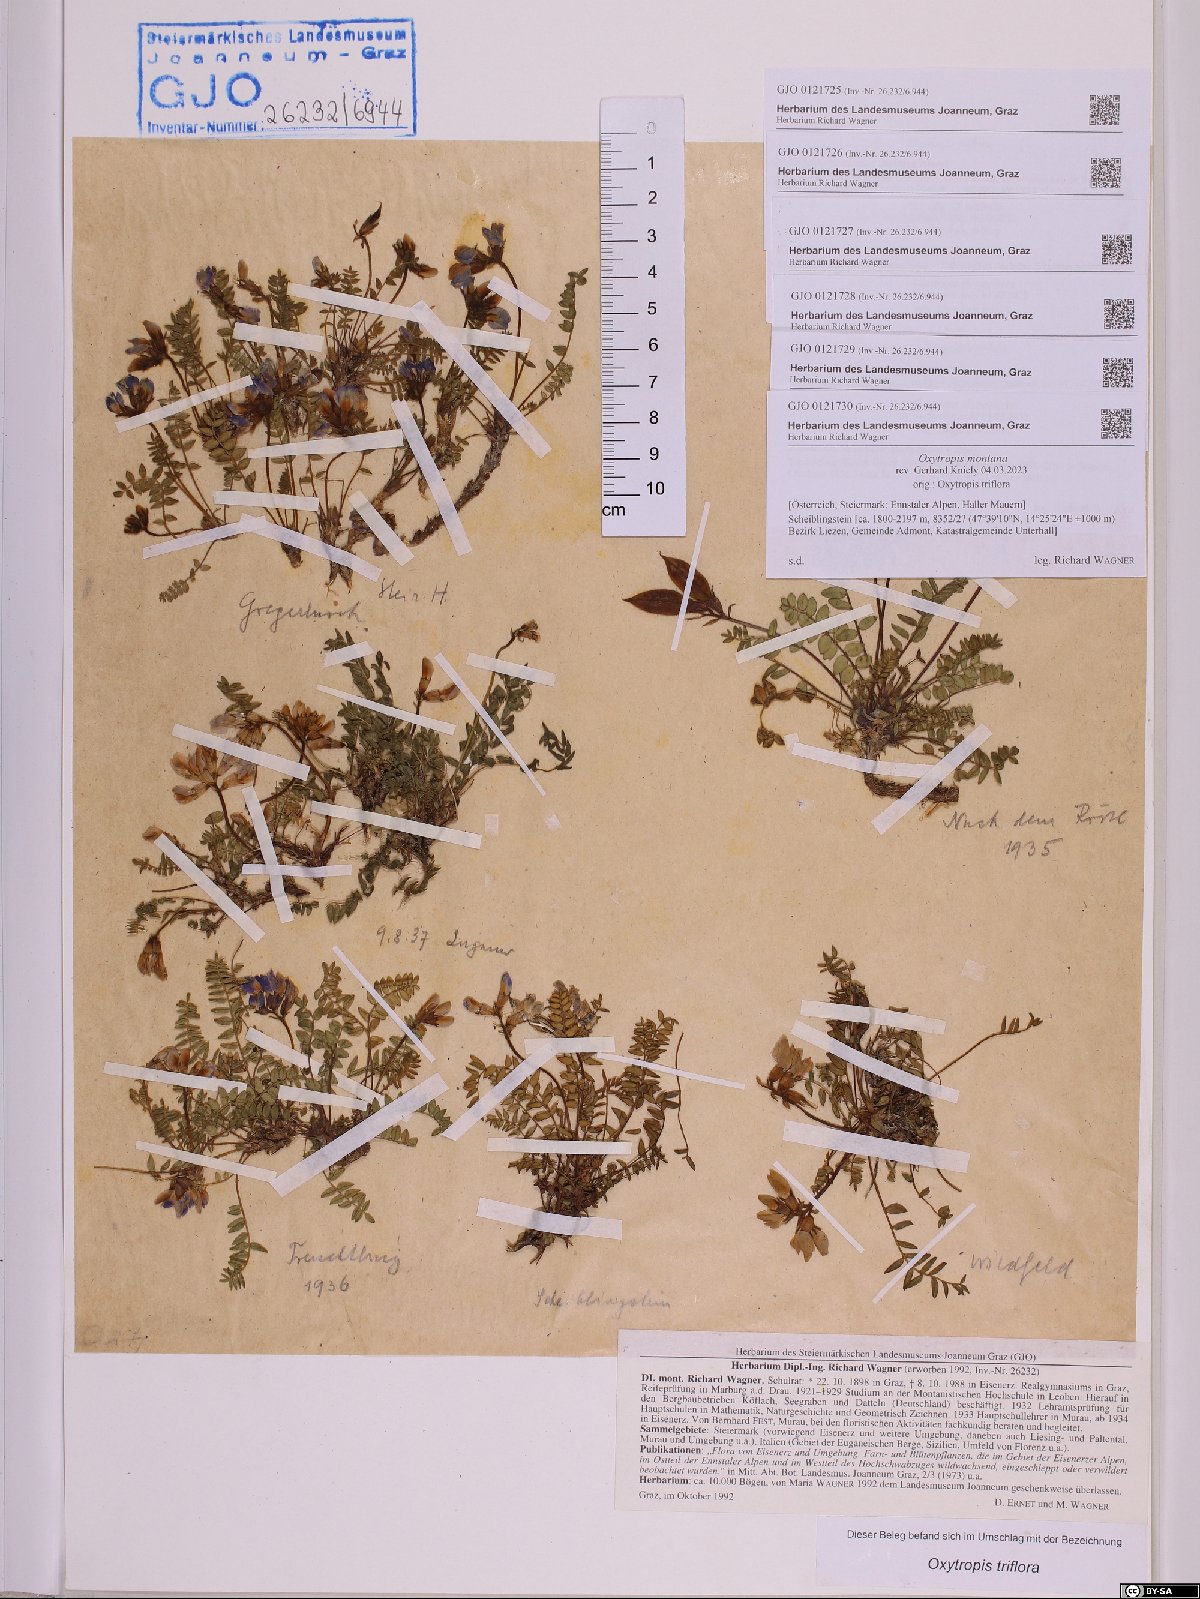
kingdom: Plantae
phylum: Tracheophyta
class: Magnoliopsida
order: Fabales
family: Fabaceae
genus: Oxytropis
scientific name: Oxytropis triflora
